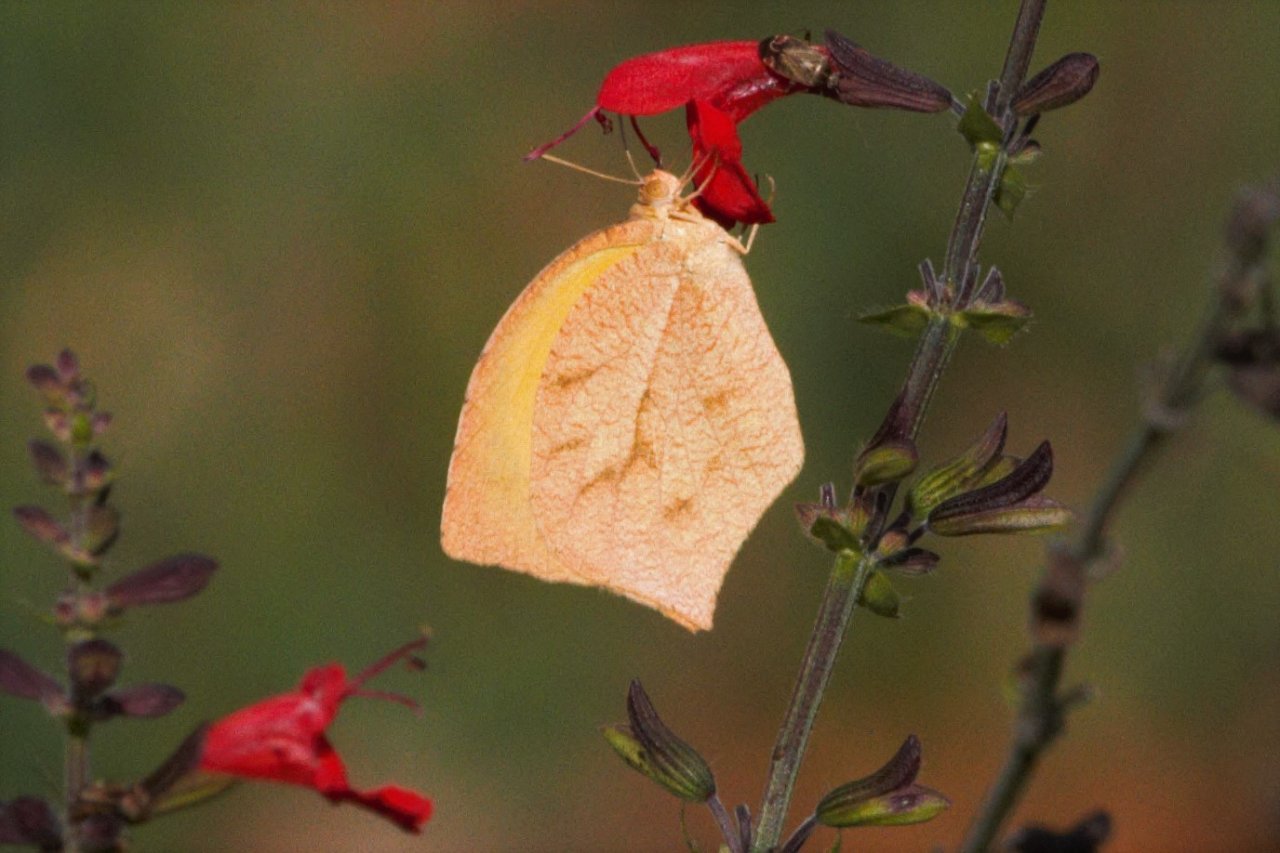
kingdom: Animalia
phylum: Arthropoda
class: Insecta
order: Lepidoptera
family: Pieridae
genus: Pyrisitia
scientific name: Pyrisitia proterpia
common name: Tailed Orange
